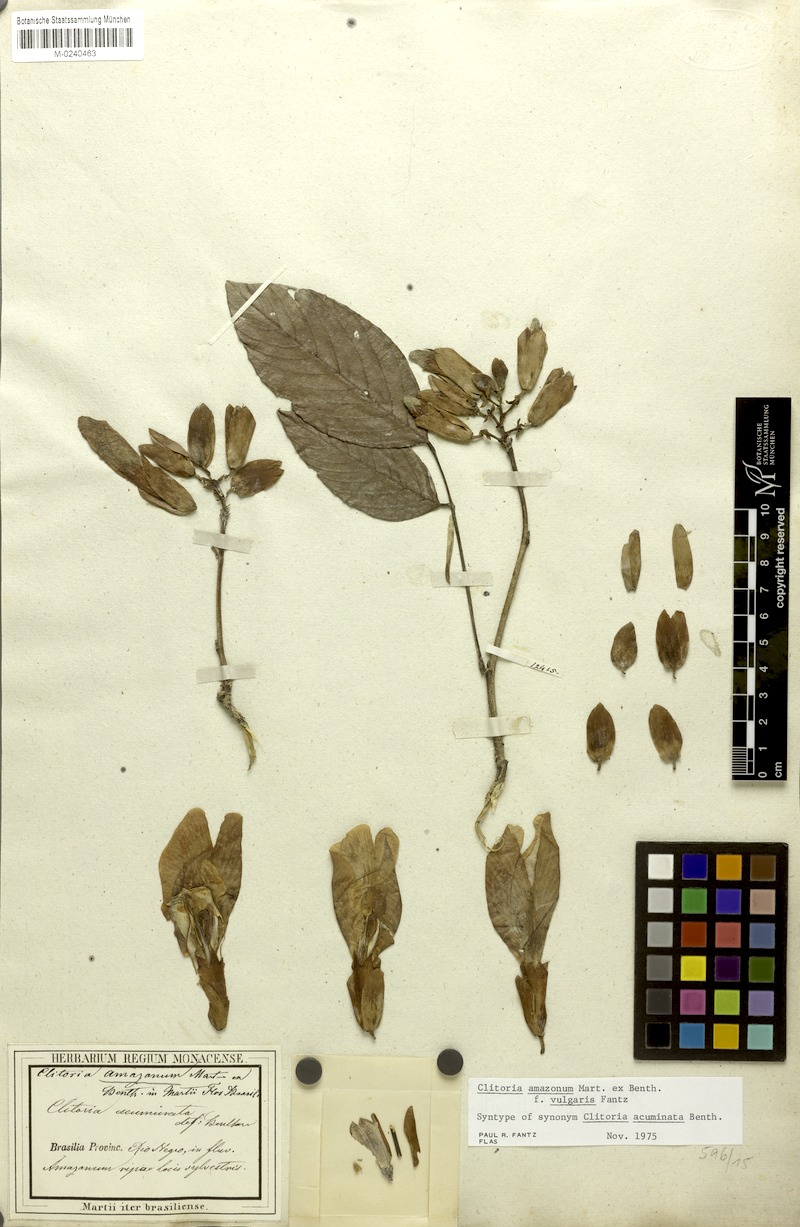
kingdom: Plantae
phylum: Tracheophyta
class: Magnoliopsida
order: Fabales
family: Fabaceae
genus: Clitoria
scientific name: Clitoria amazonum
